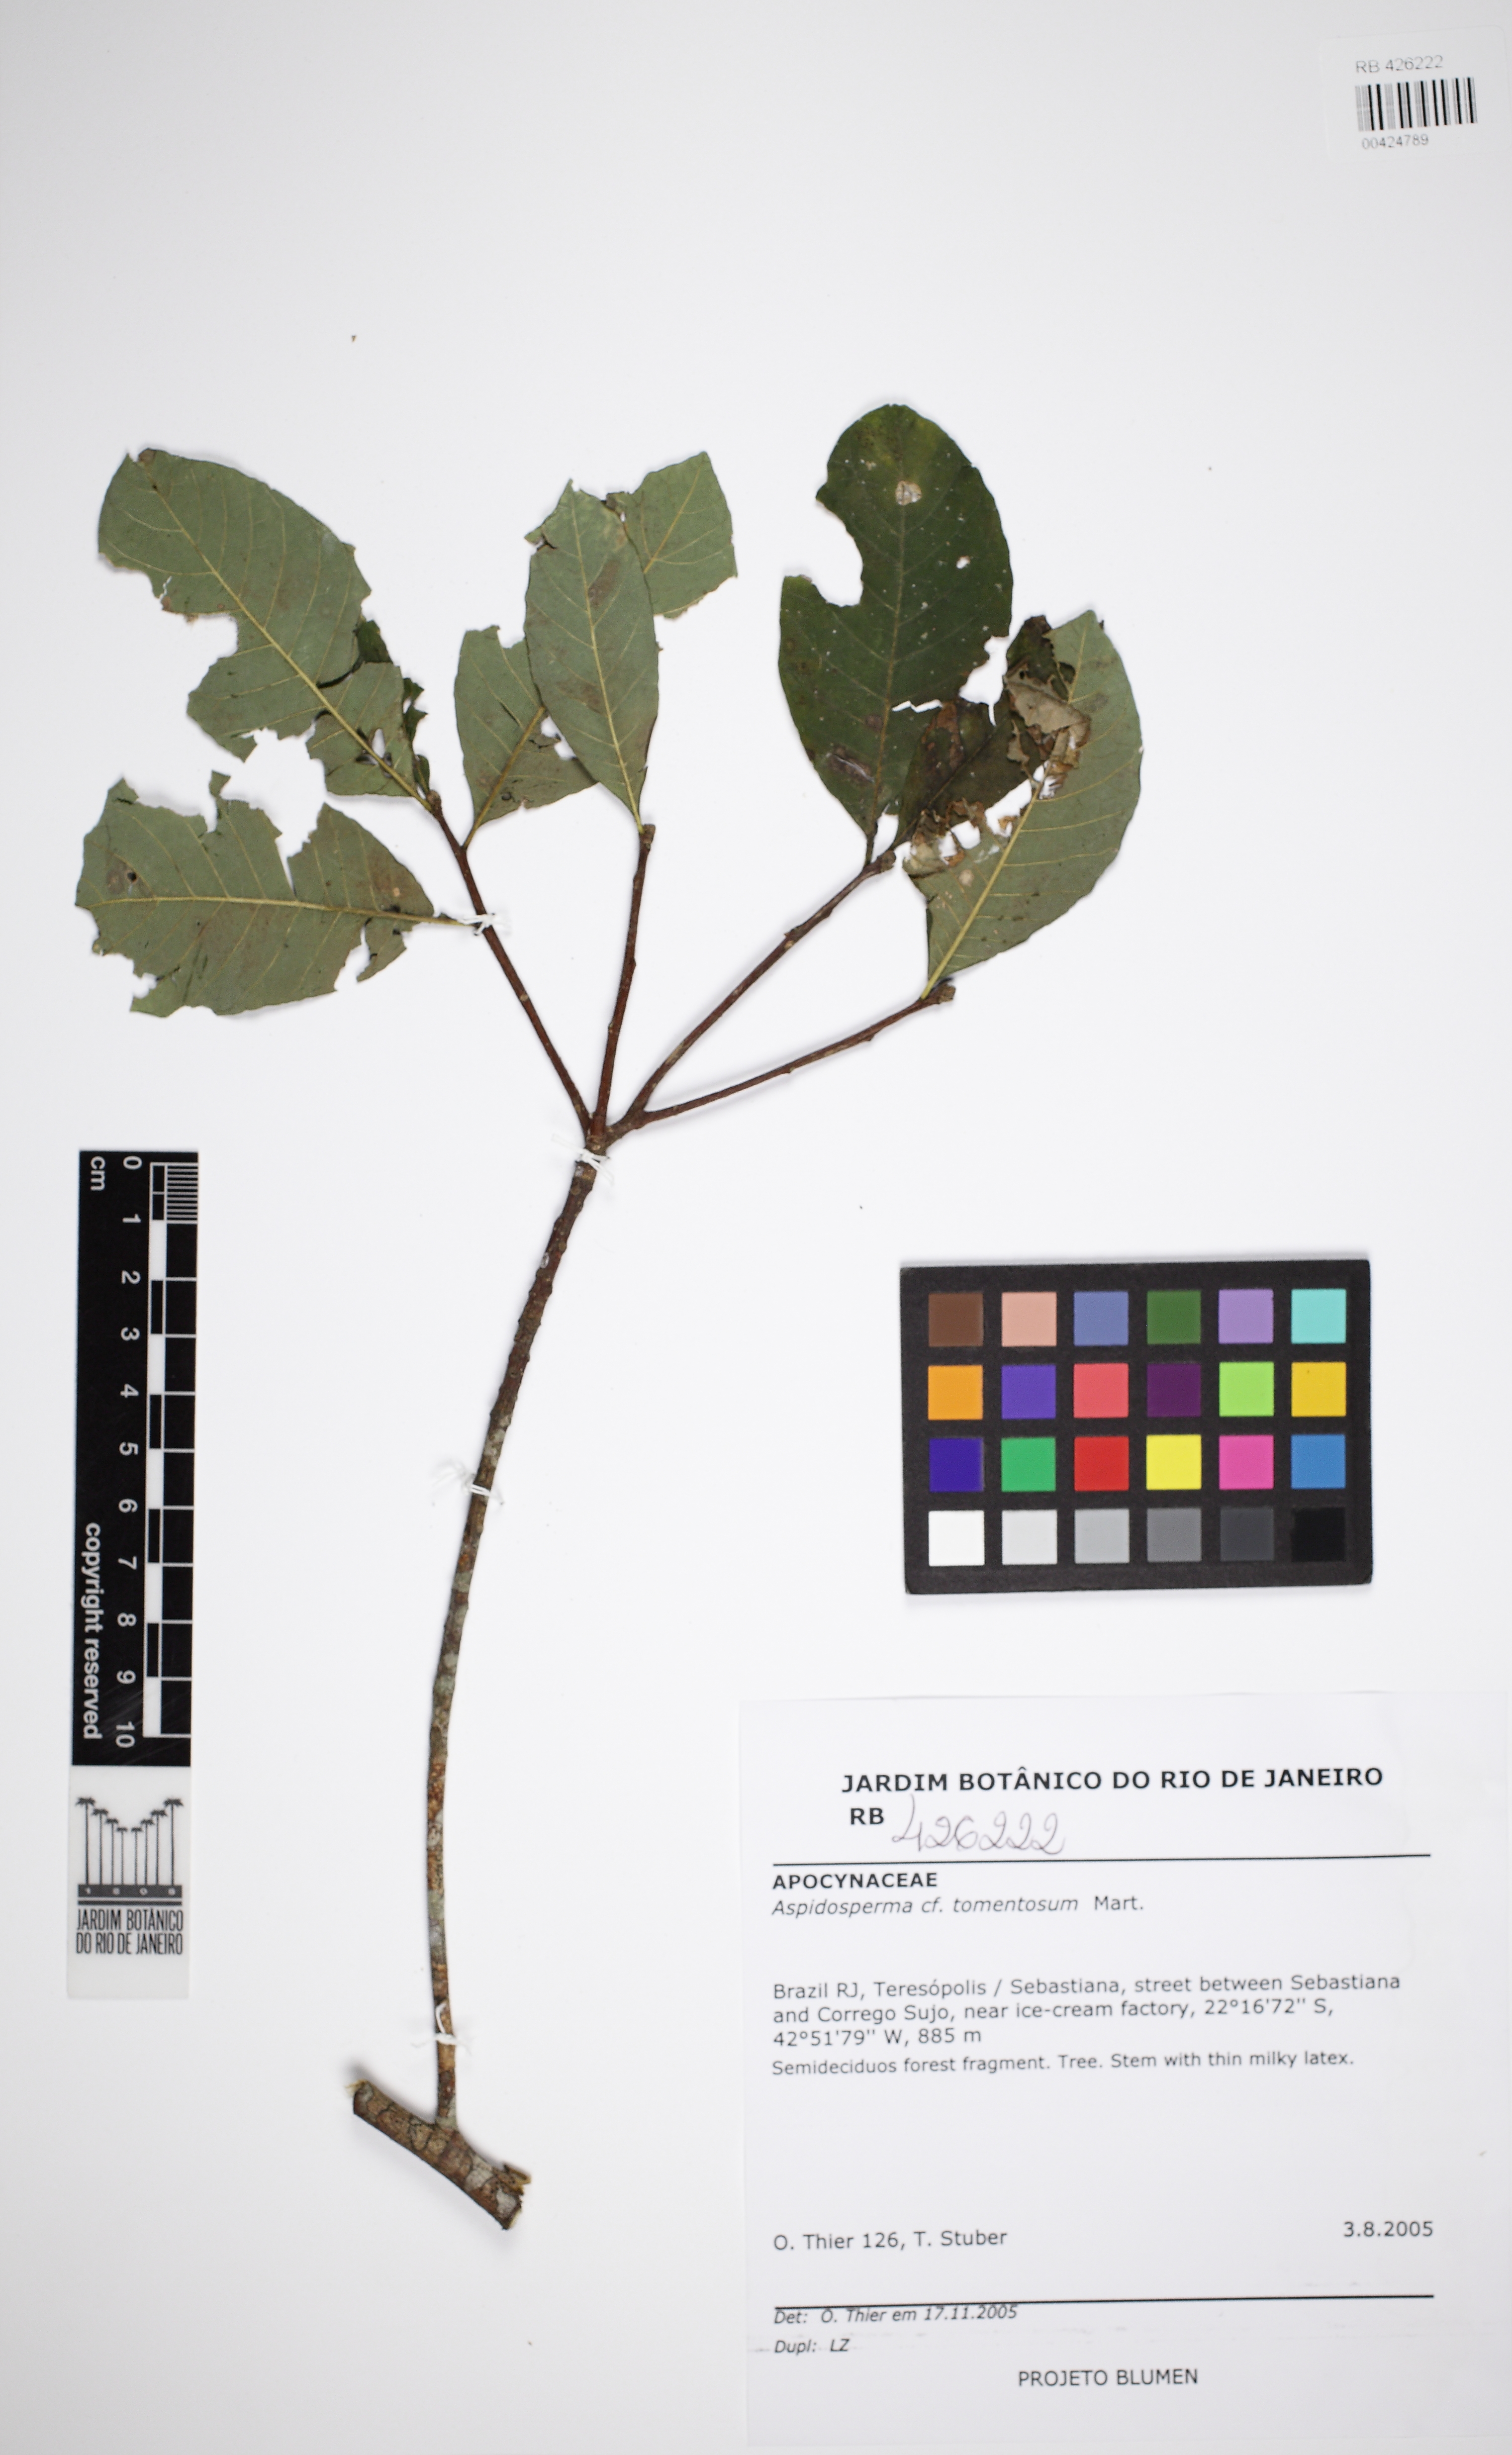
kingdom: Plantae
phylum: Tracheophyta
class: Magnoliopsida
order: Gentianales
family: Apocynaceae
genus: Aspidosperma
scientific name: Aspidosperma subincanum
